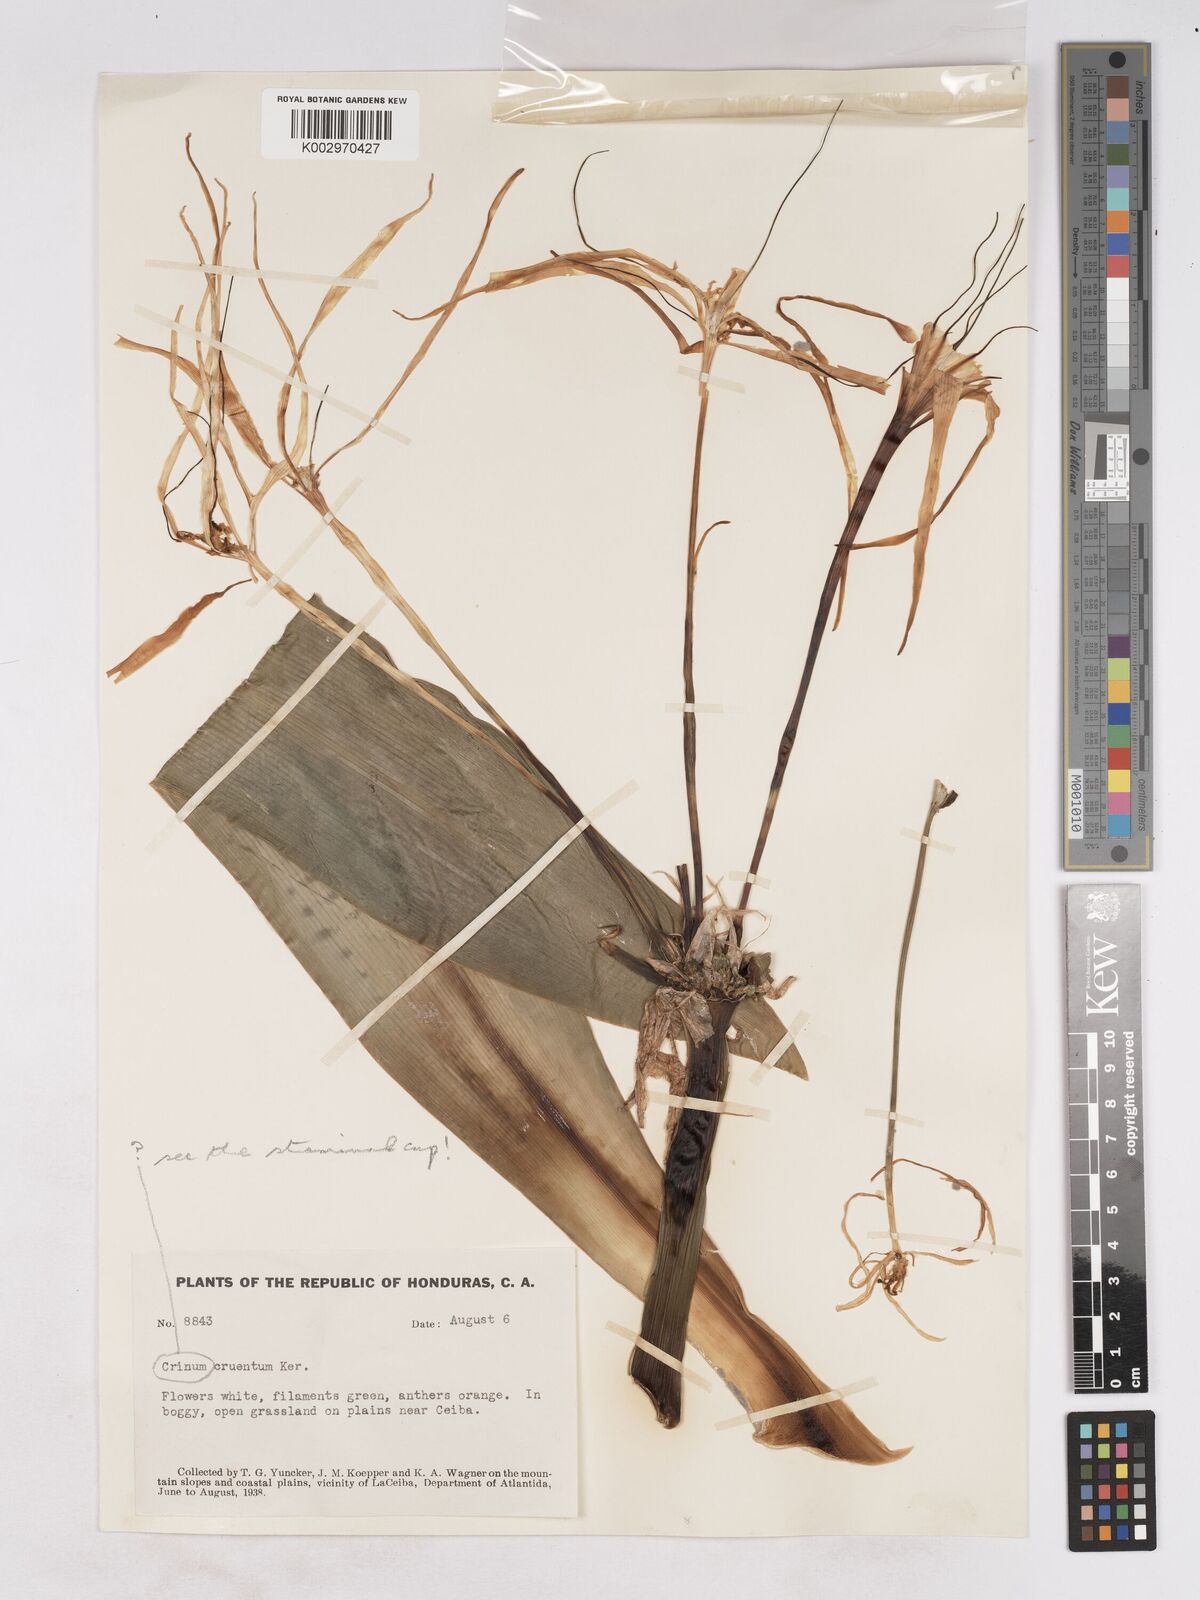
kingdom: Plantae
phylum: Tracheophyta
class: Liliopsida
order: Asparagales
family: Amaryllidaceae
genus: Hymenocallis
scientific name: Hymenocallis littoralis
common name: Beach spiderlily
